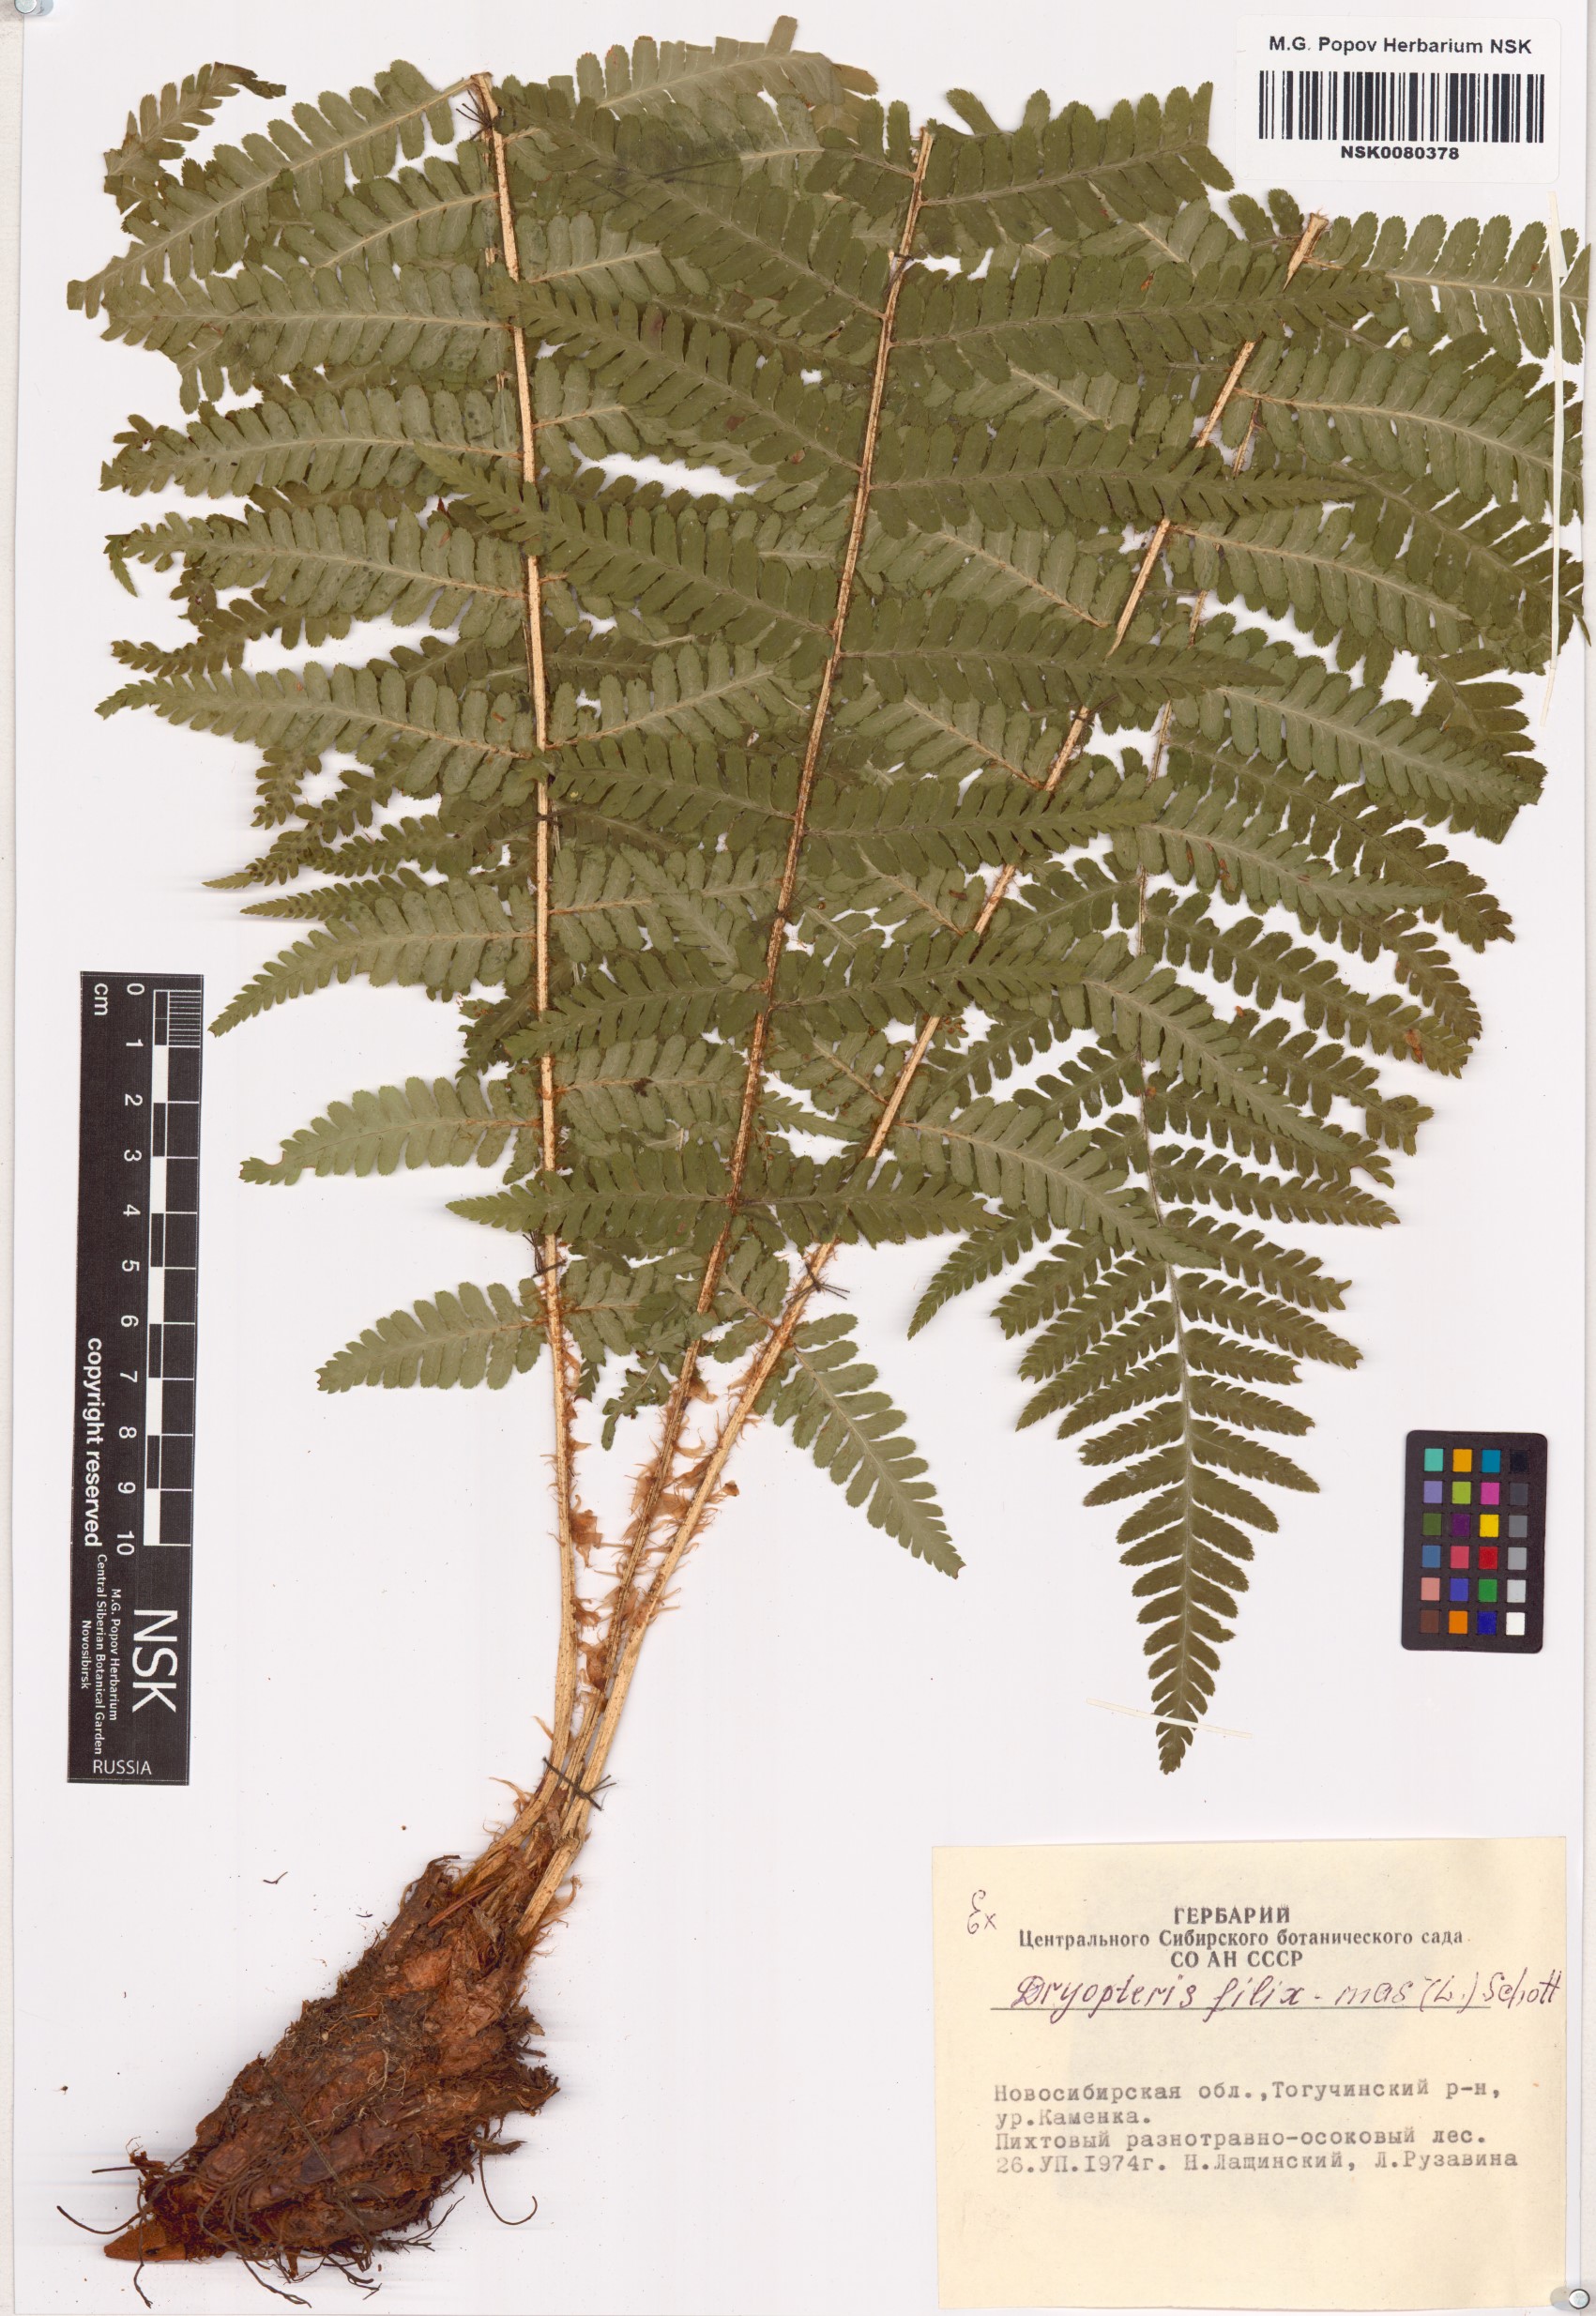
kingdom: Plantae
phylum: Tracheophyta
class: Polypodiopsida
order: Polypodiales
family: Dryopteridaceae
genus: Dryopteris
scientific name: Dryopteris filix-mas
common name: Male fern
